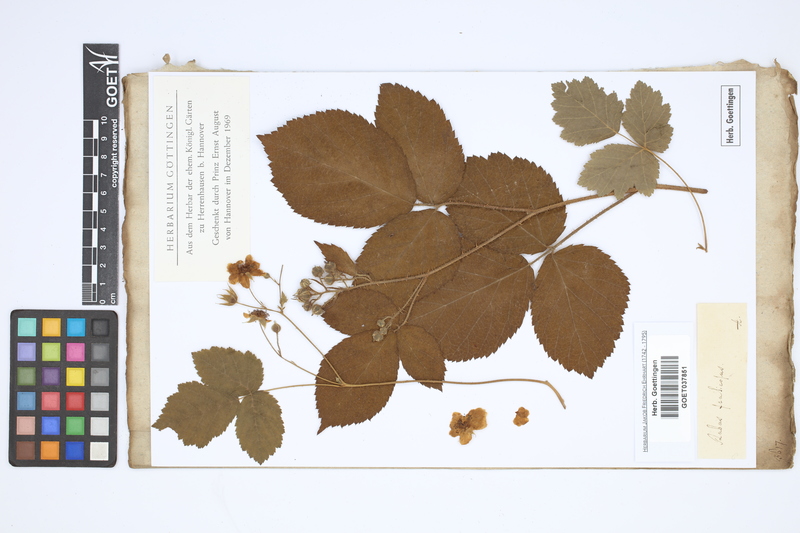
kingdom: Plantae
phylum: Tracheophyta
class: Magnoliopsida
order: Rosales
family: Rosaceae
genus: Rubus
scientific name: Rubus fruticosus
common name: Blackberry, bramble
